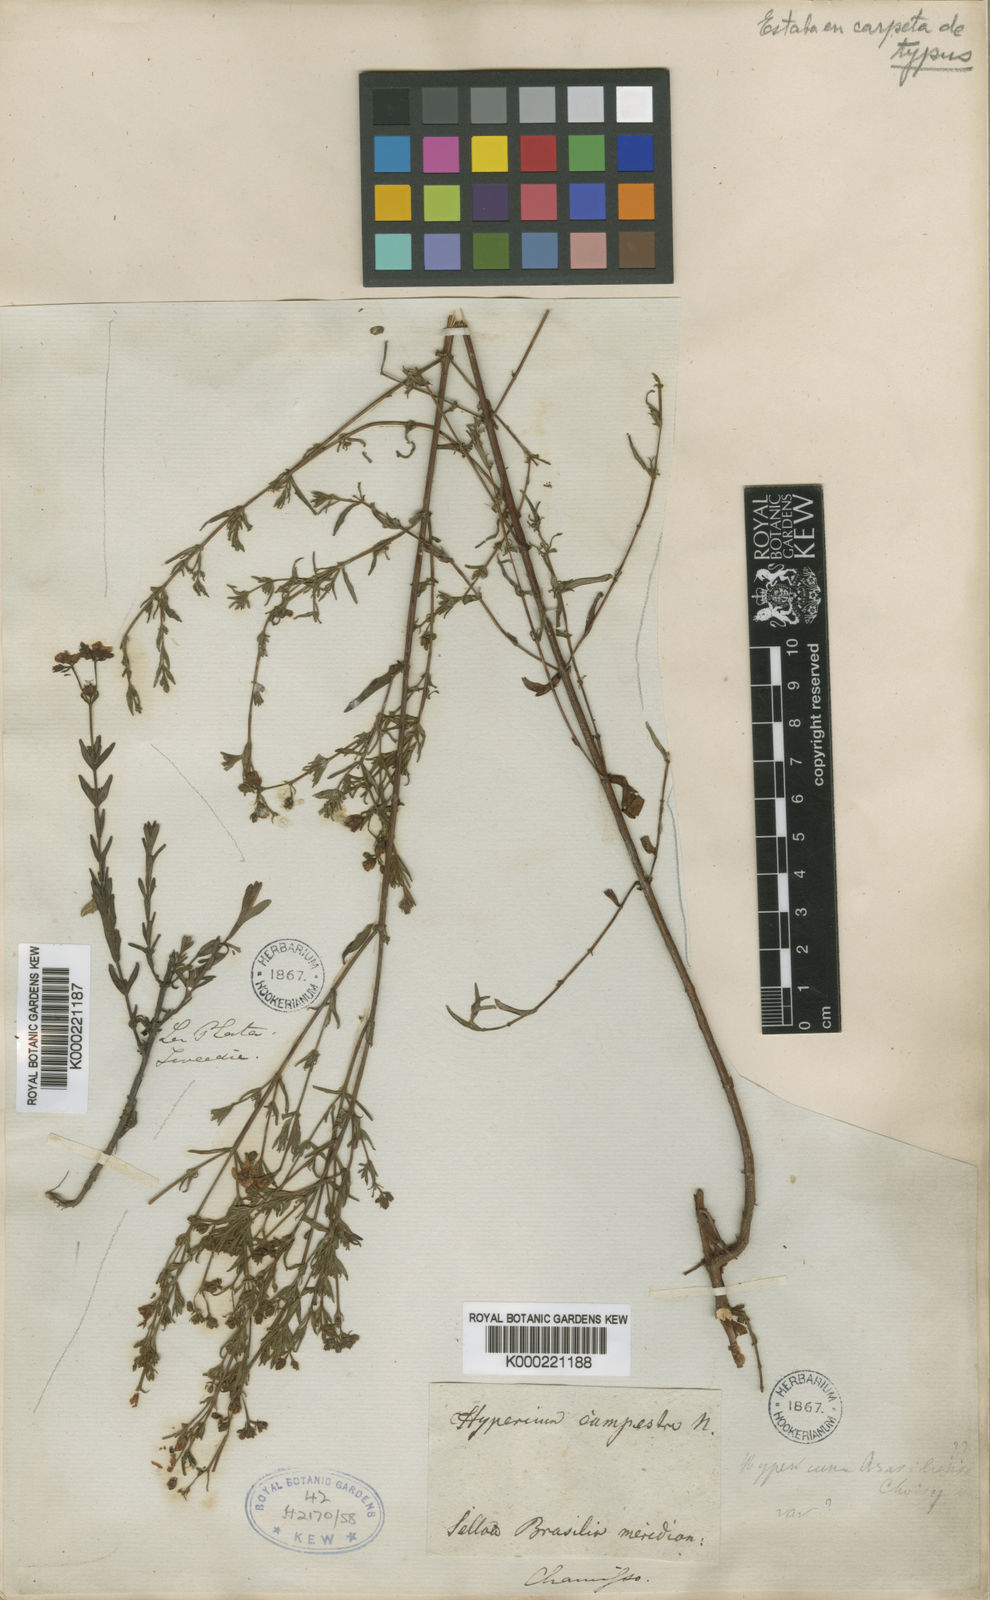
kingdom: Plantae
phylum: Tracheophyta
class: Magnoliopsida
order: Malpighiales
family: Hypericaceae
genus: Hypericum
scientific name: Hypericum campestre
